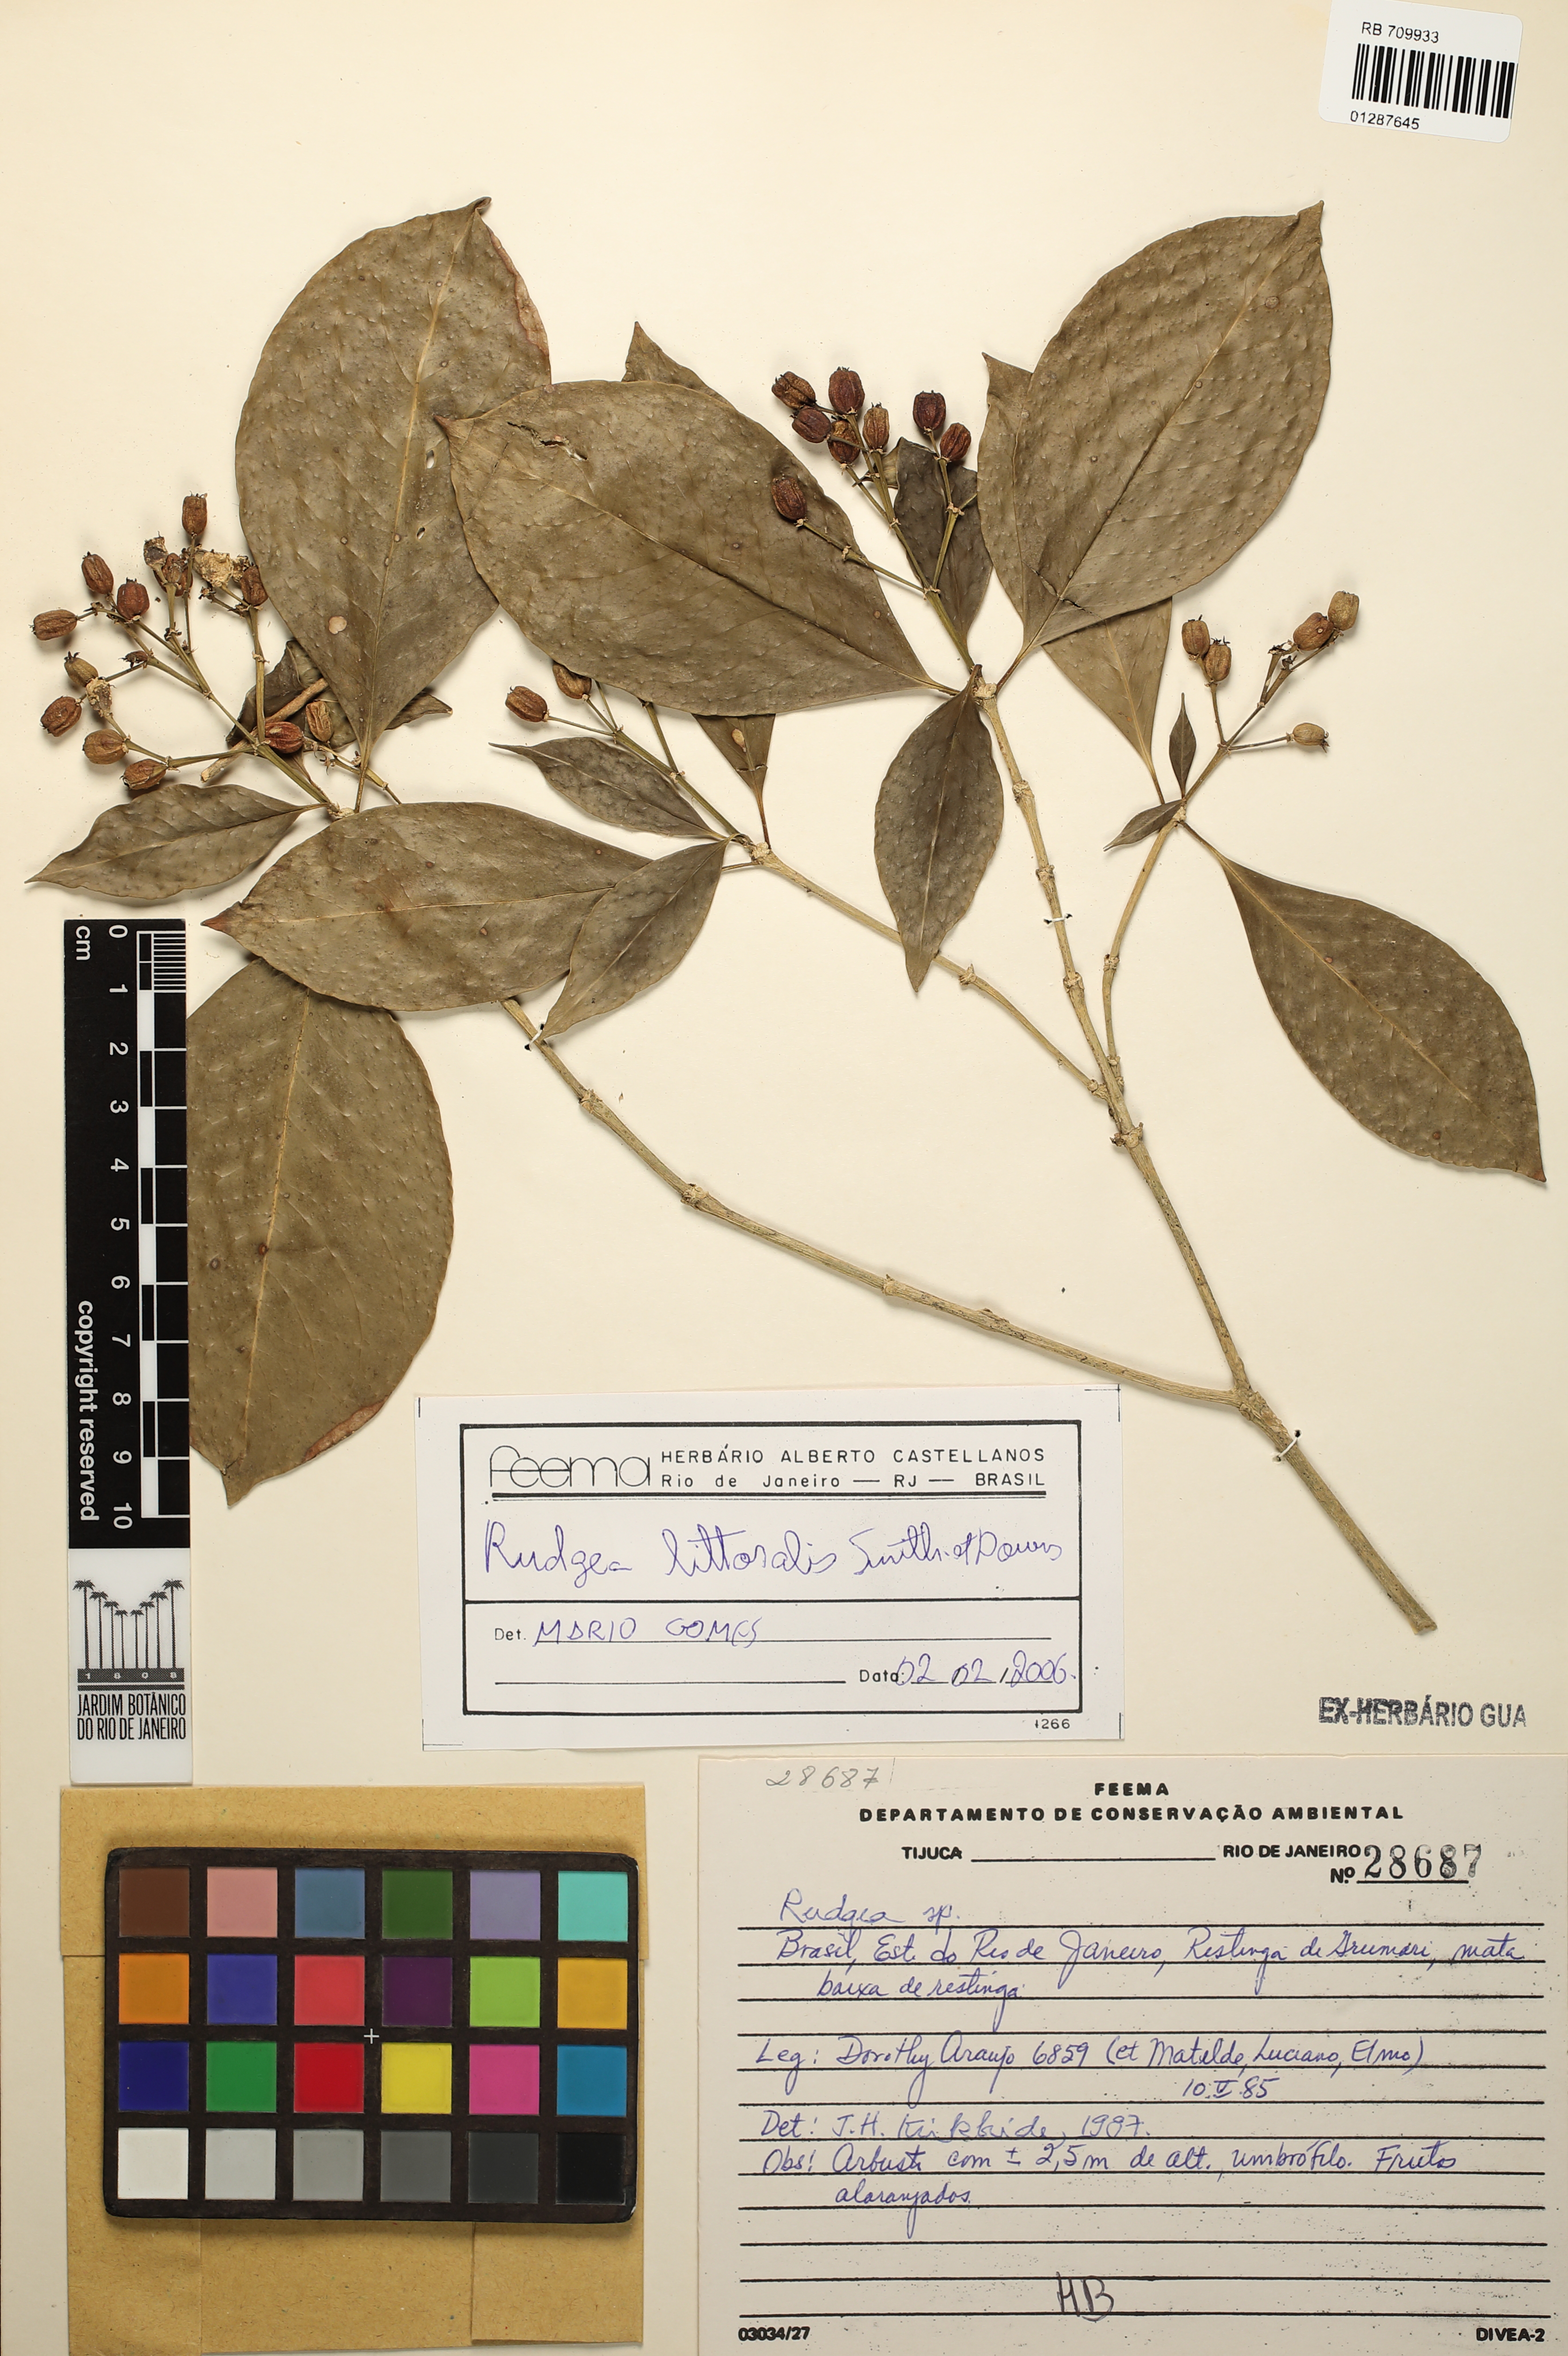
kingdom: Plantae
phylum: Tracheophyta
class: Magnoliopsida
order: Gentianales
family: Rubiaceae
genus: Rudgea
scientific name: Rudgea parquioides
